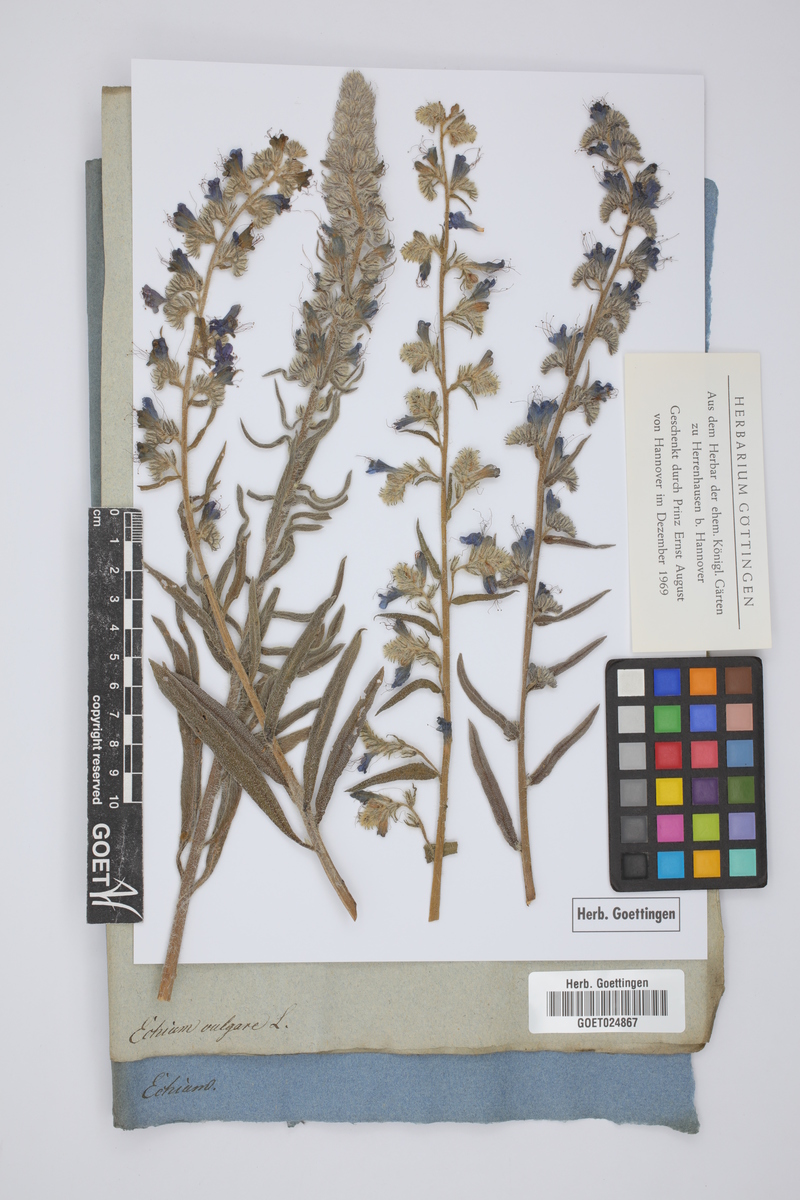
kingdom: Plantae
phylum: Tracheophyta
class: Magnoliopsida
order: Boraginales
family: Boraginaceae
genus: Echium
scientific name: Echium vulgare
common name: Common viper's bugloss
